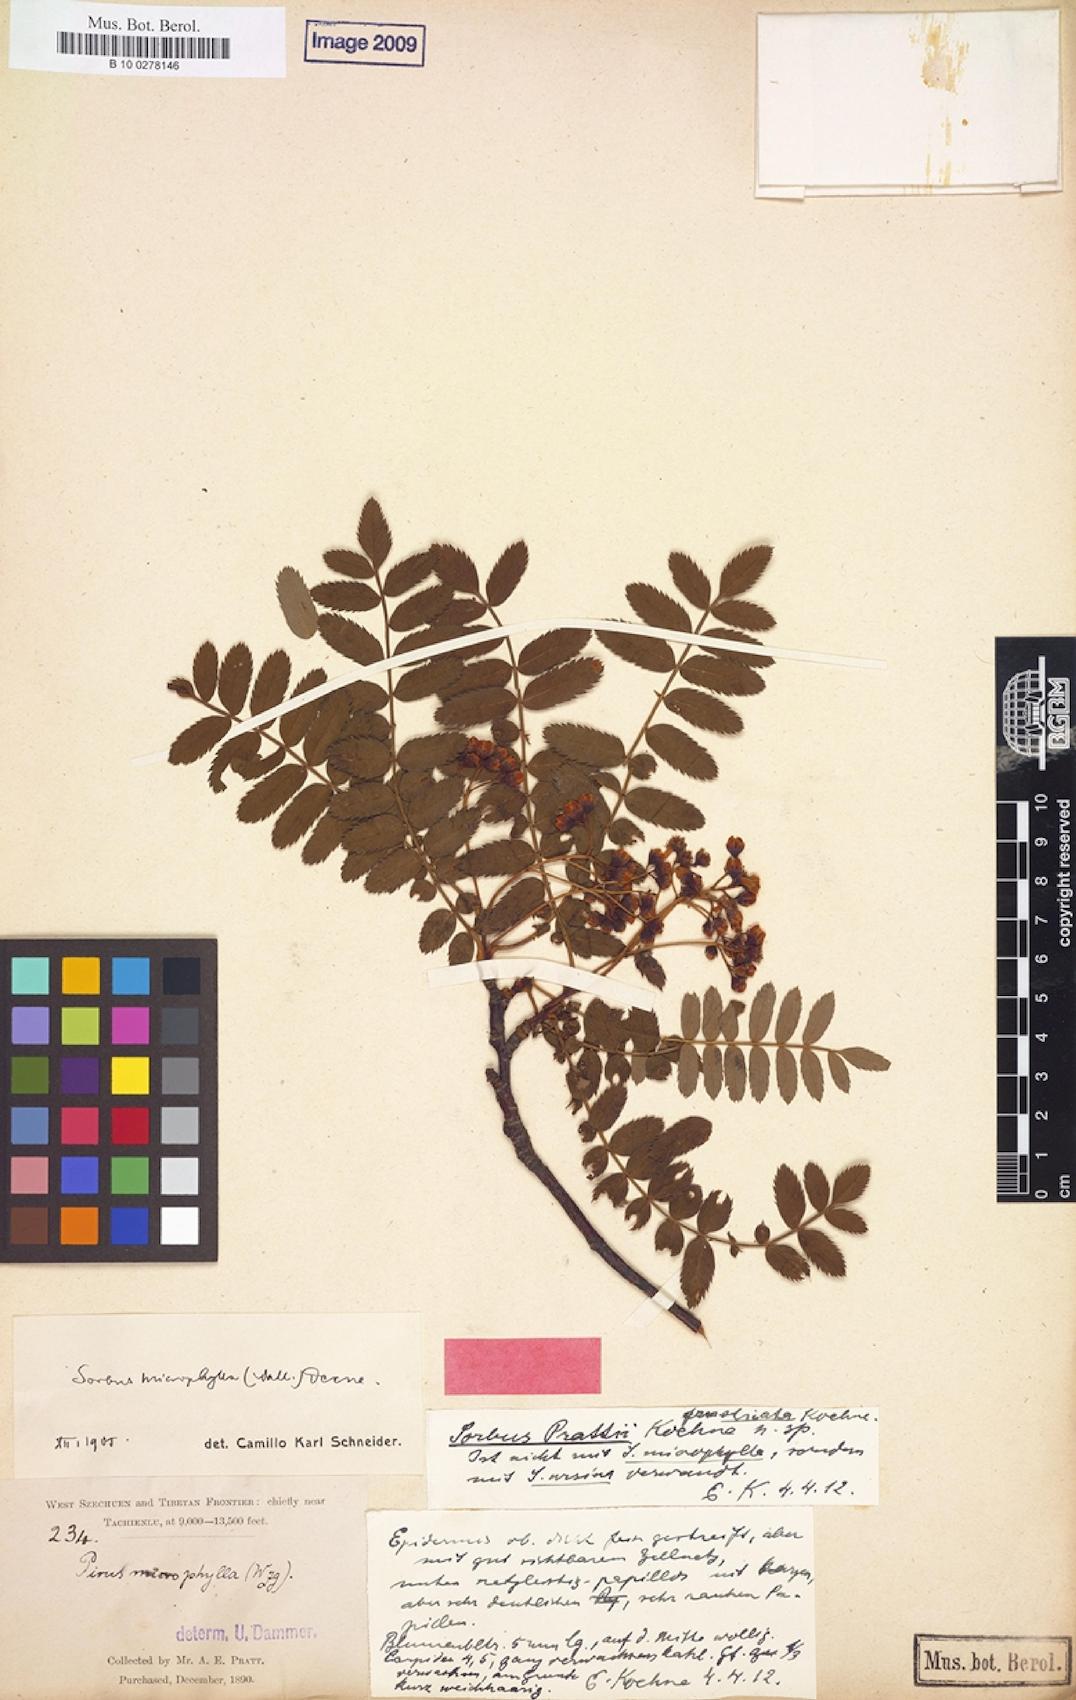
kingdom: Plantae
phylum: Tracheophyta
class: Magnoliopsida
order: Rosales
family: Rosaceae
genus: Sorbus
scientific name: Sorbus prattii
